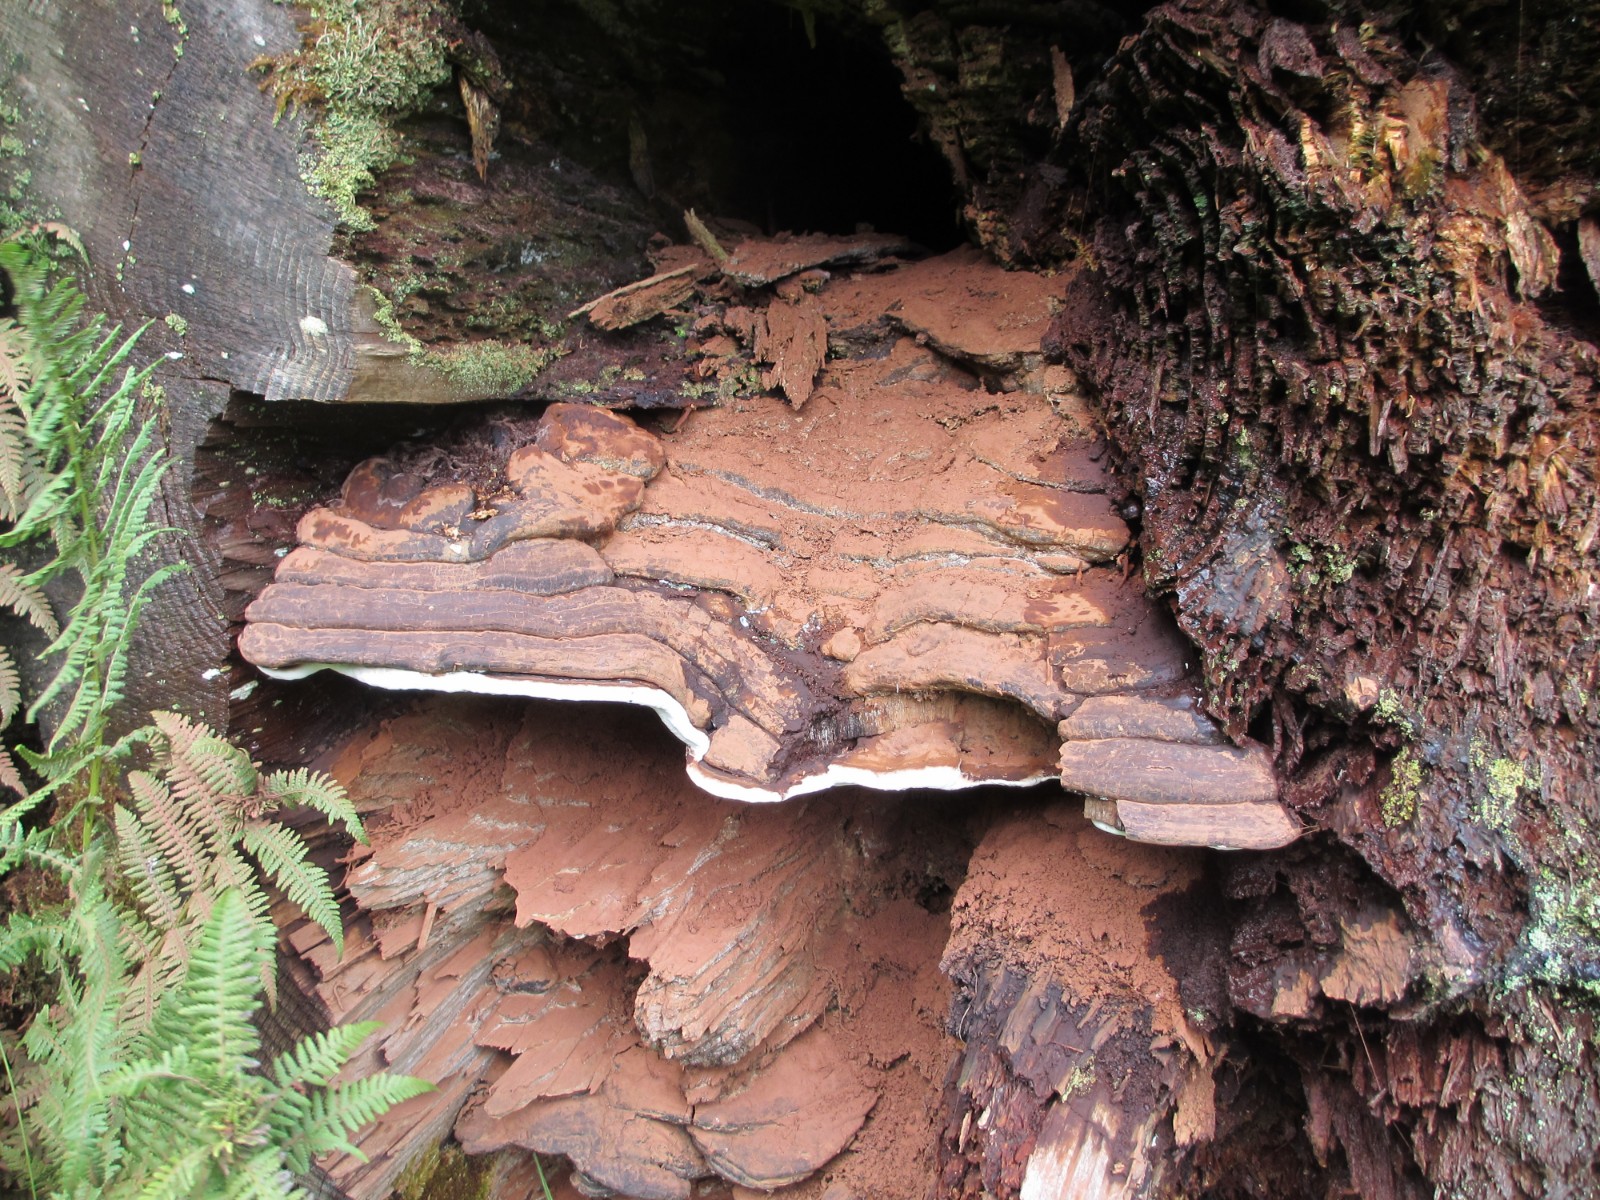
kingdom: Fungi
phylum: Basidiomycota
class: Agaricomycetes
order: Polyporales
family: Polyporaceae
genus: Ganoderma
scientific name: Ganoderma adspersum
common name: grov lakporesvamp
